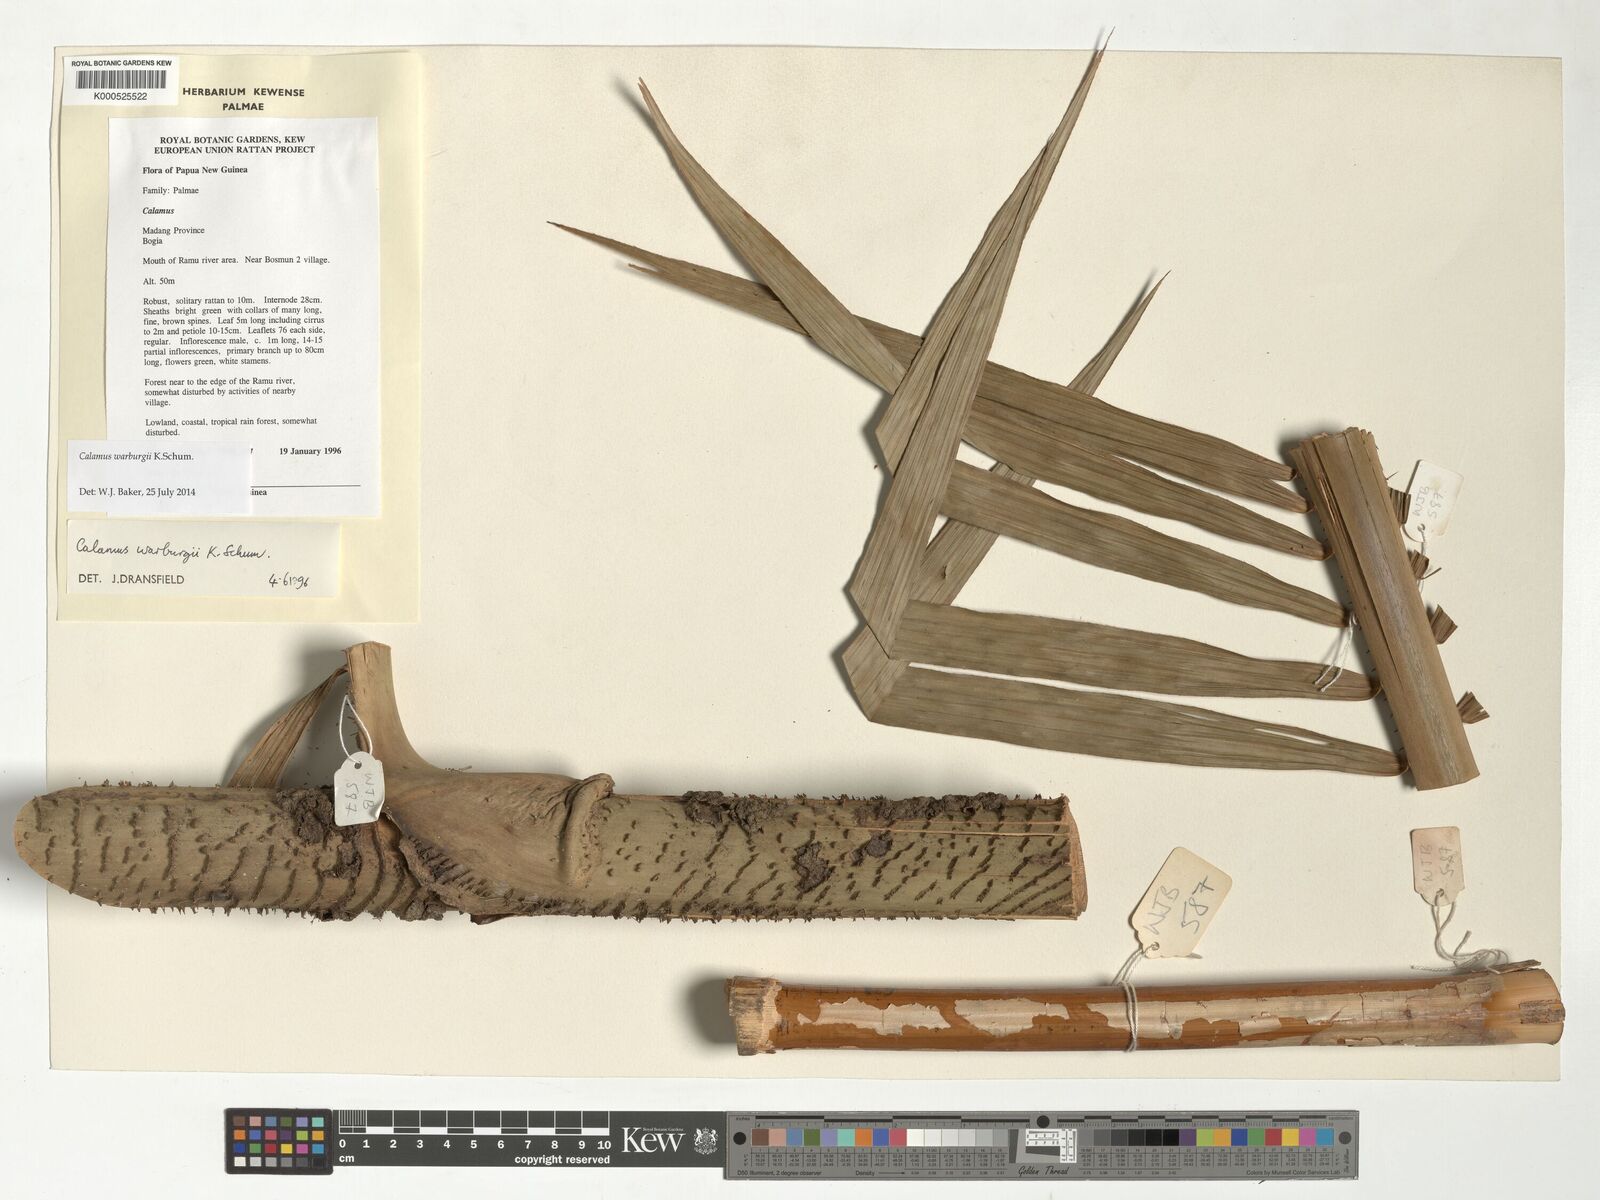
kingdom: Plantae
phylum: Tracheophyta
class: Liliopsida
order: Arecales
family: Arecaceae
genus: Calamus
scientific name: Calamus warburgii
